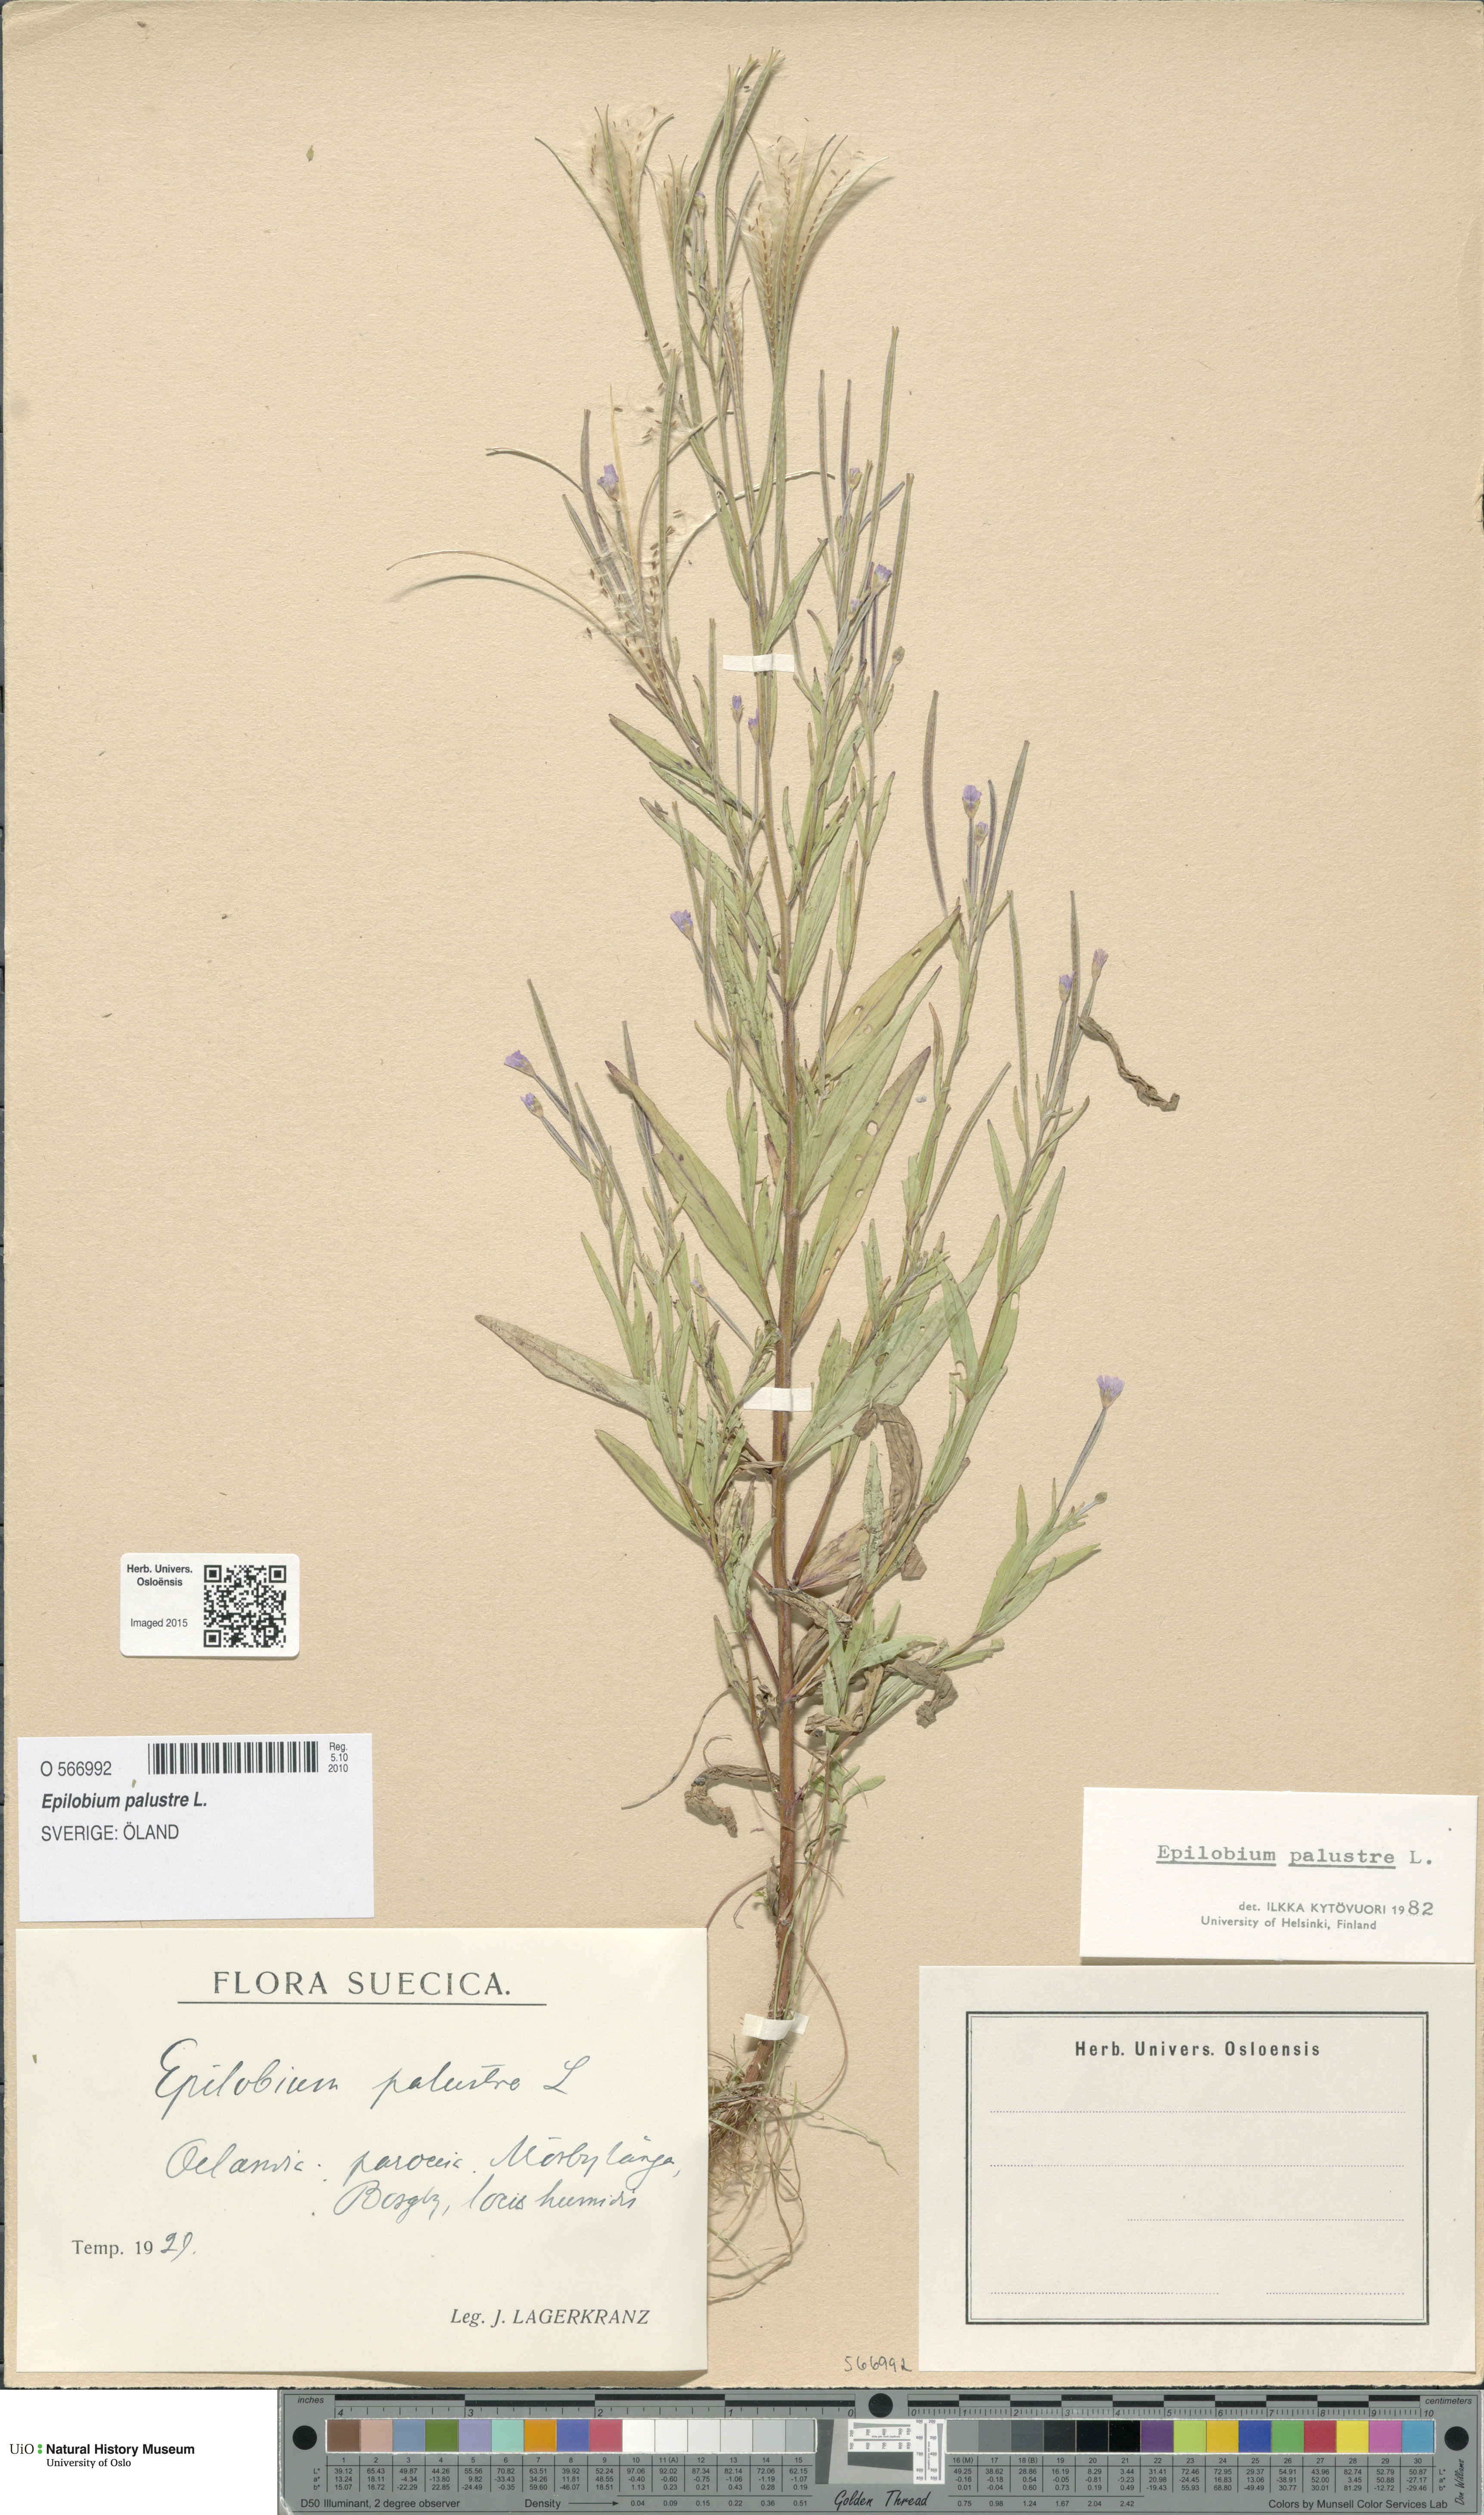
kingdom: Plantae
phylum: Tracheophyta
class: Magnoliopsida
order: Myrtales
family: Onagraceae
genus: Epilobium
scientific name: Epilobium palustre
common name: Marsh willowherb
